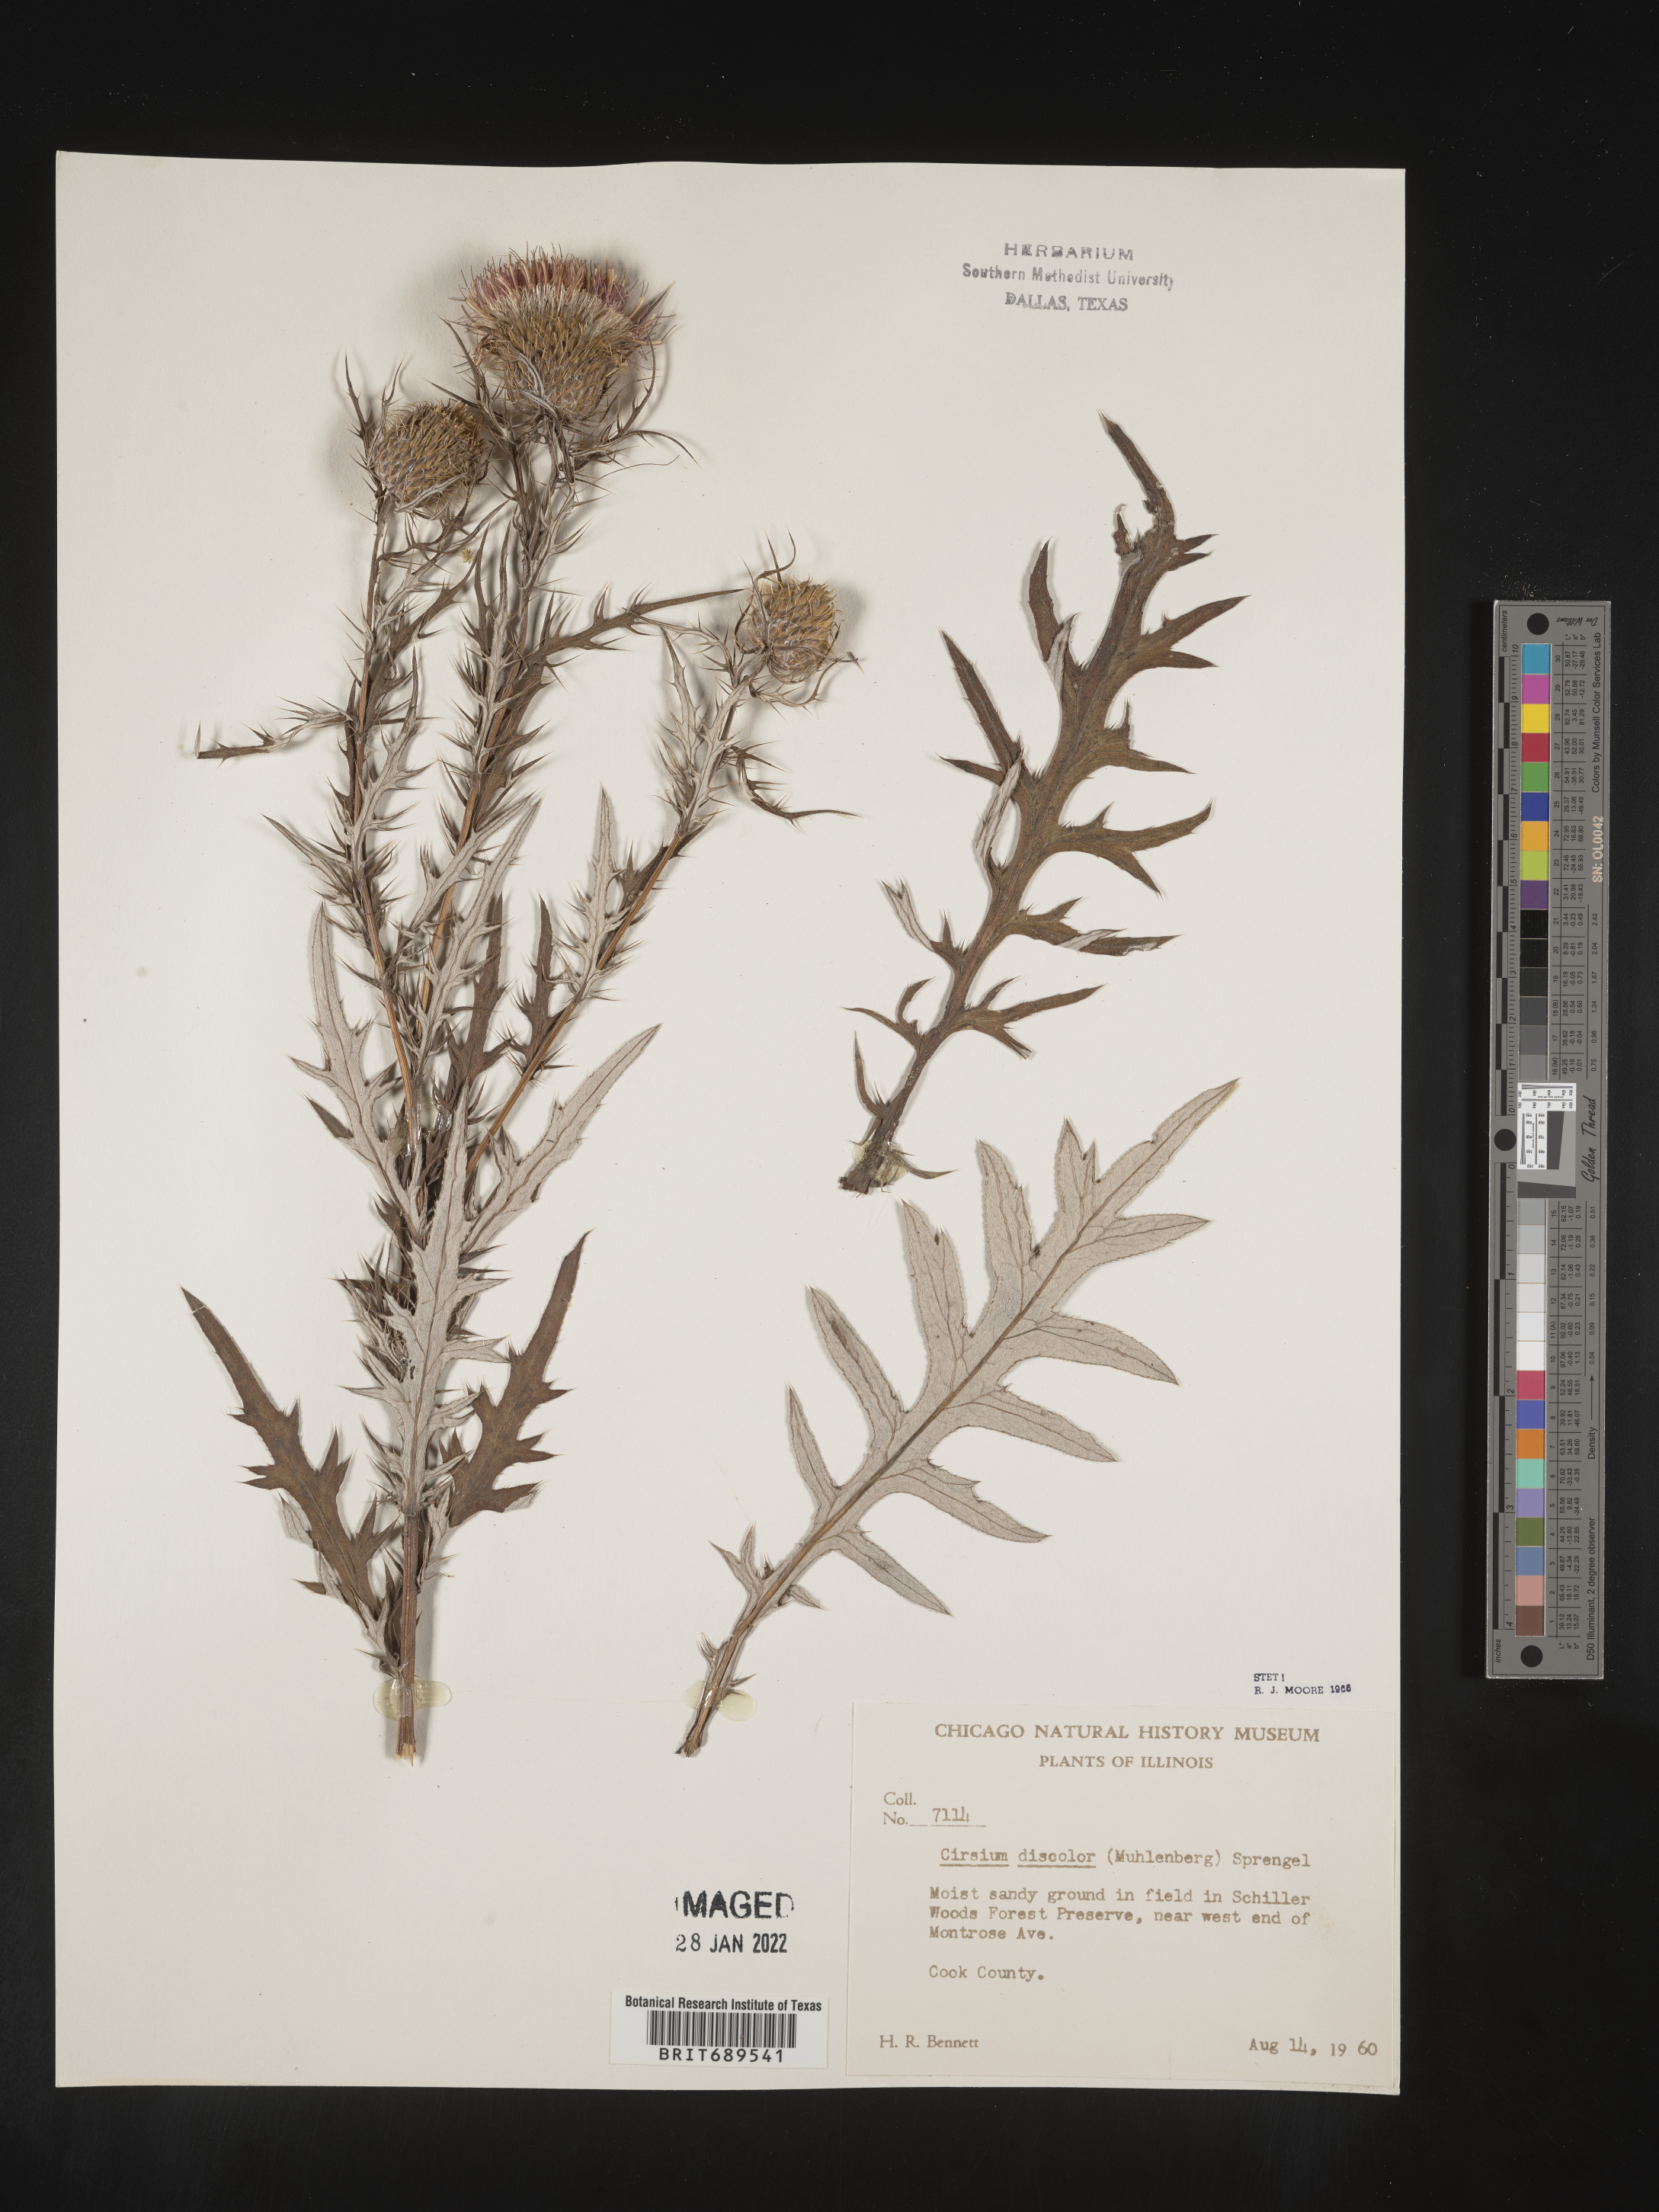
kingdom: Plantae
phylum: Tracheophyta
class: Magnoliopsida
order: Asterales
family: Asteraceae
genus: Cirsium
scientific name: Cirsium discolor
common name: Field thistle
